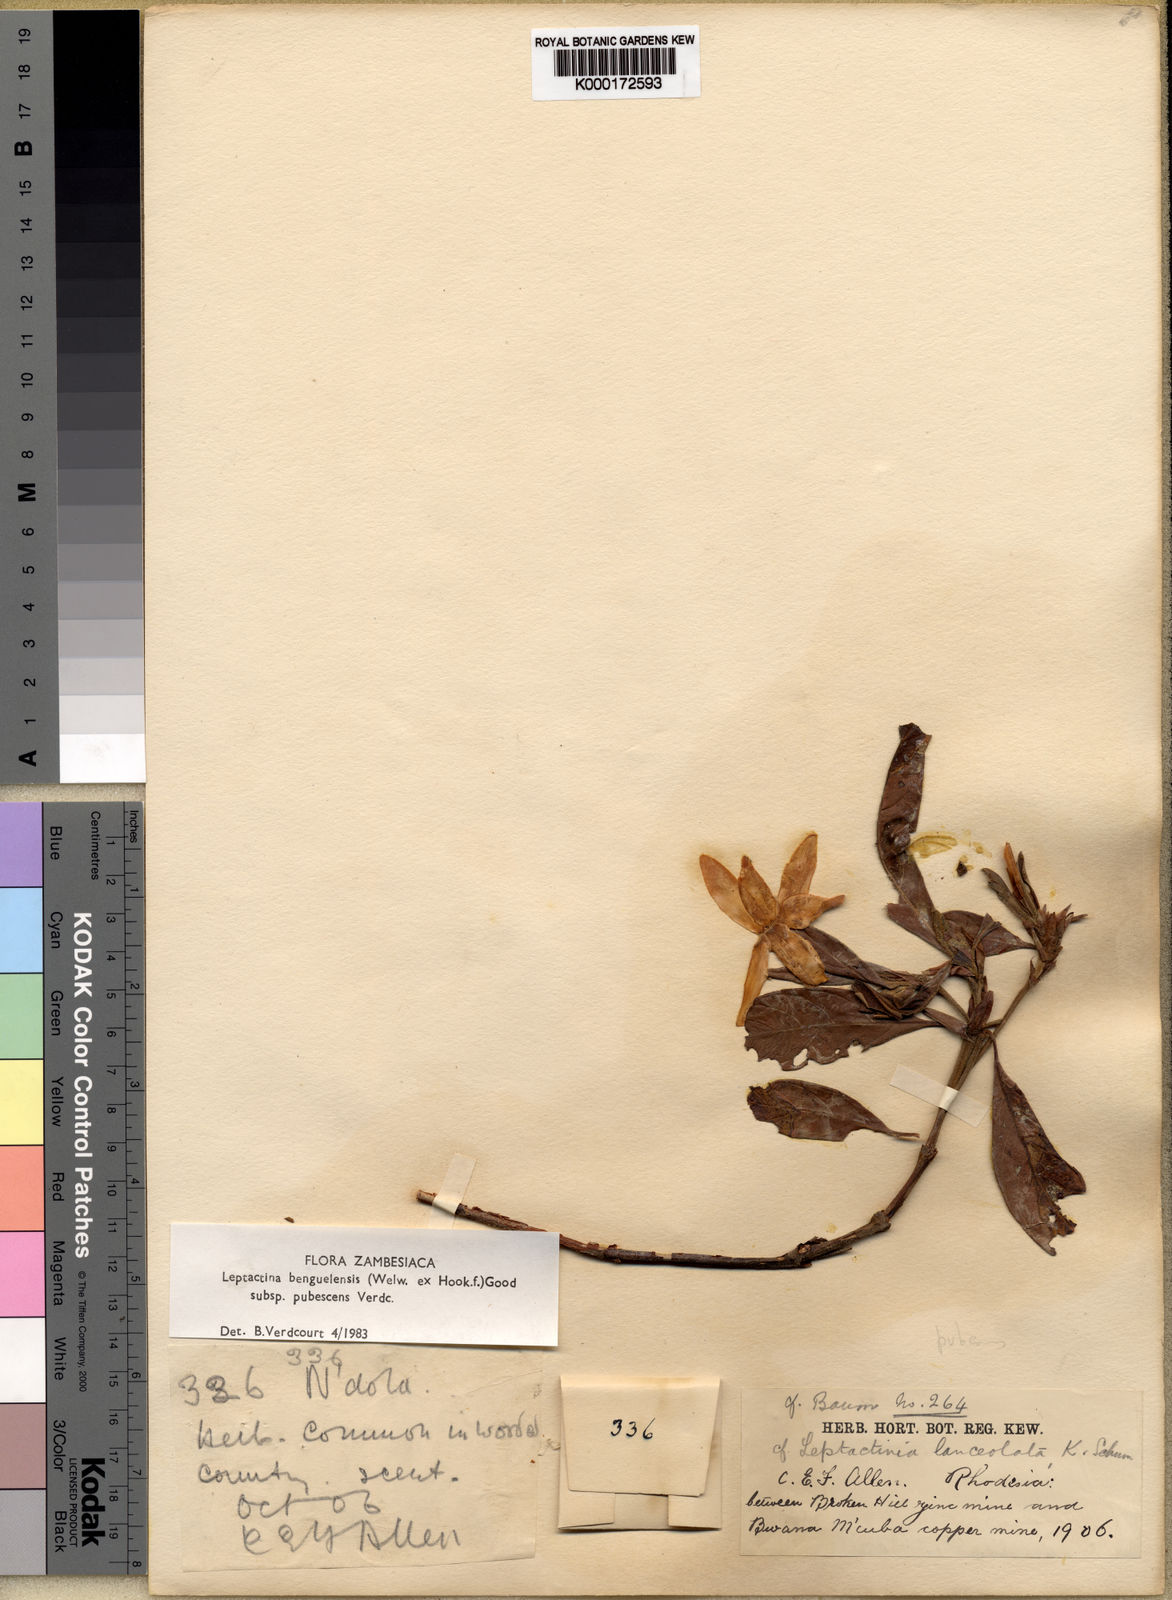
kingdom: Plantae
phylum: Tracheophyta
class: Magnoliopsida
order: Gentianales
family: Rubiaceae
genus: Leptactina
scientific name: Leptactina benguelensis
